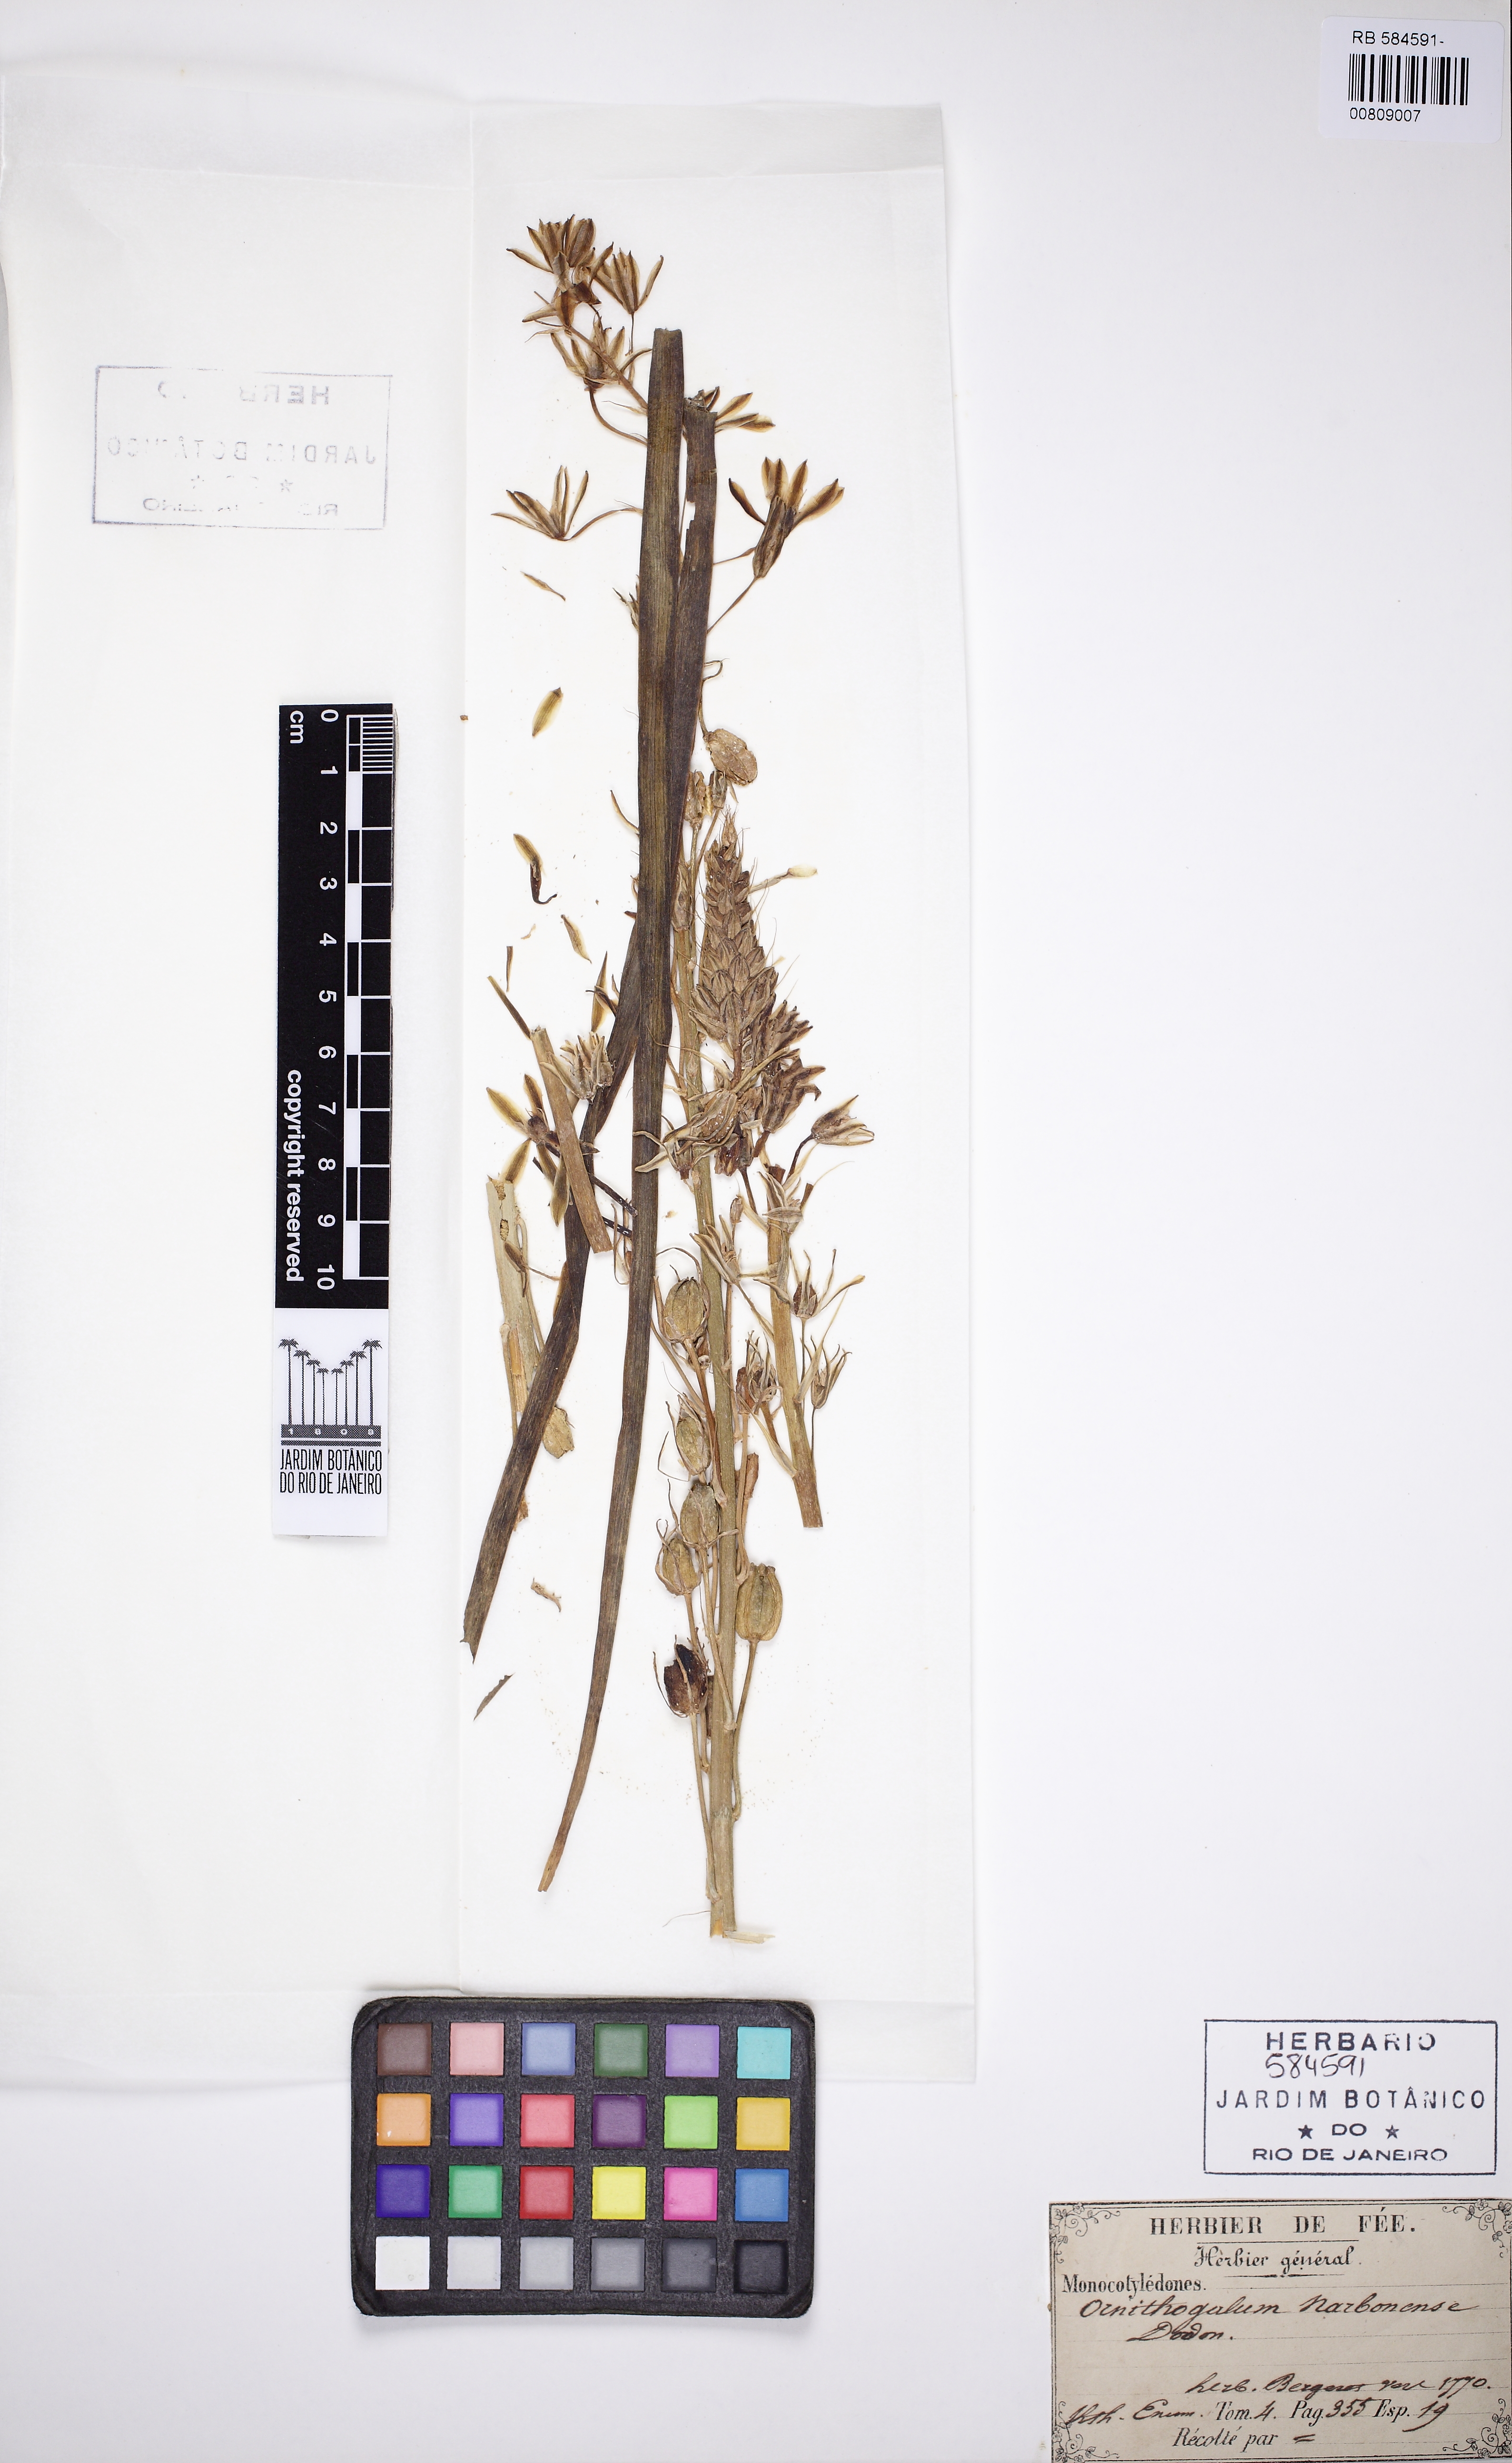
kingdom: Plantae
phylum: Tracheophyta
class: Liliopsida
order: Asparagales
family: Asparagaceae
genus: Ornithogalum
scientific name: Ornithogalum narbonense
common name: Bath-asparagus
